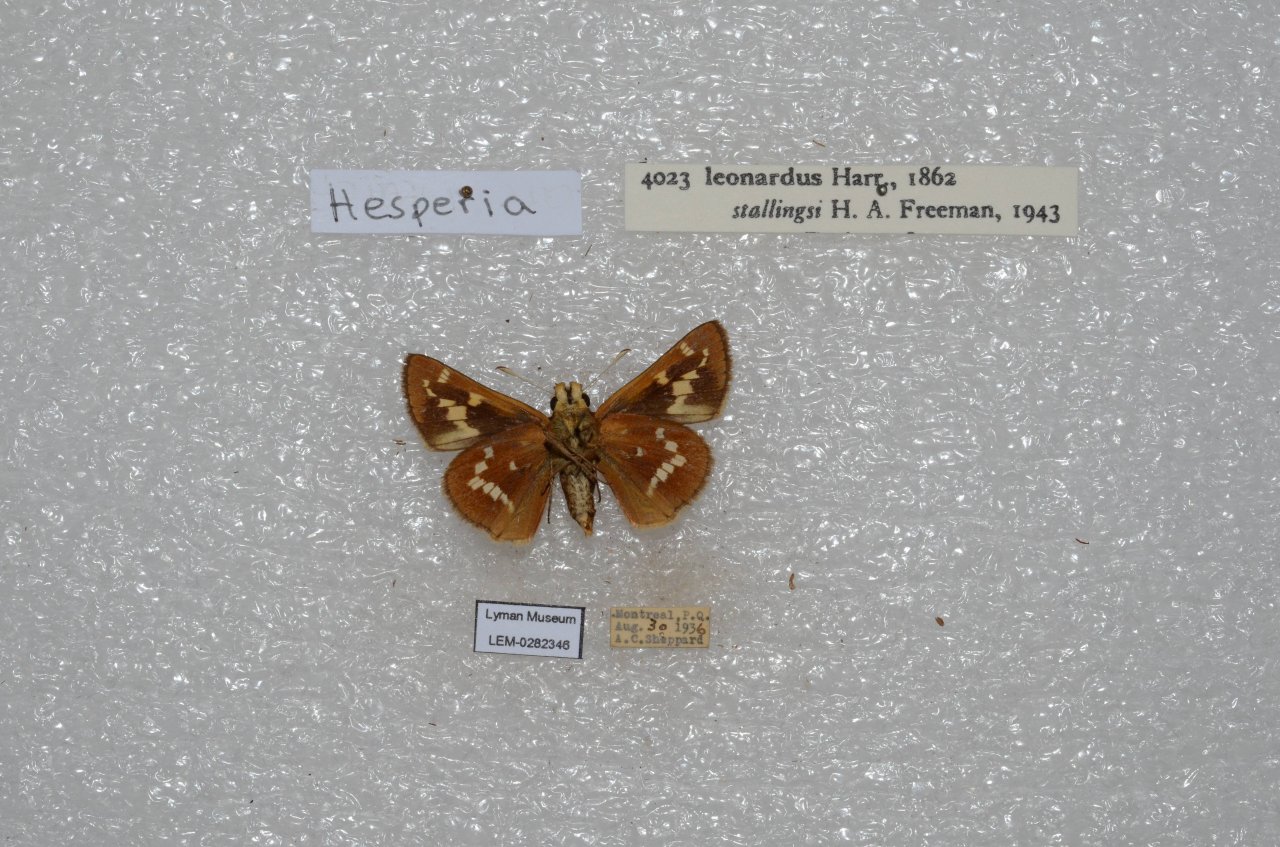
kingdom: Animalia
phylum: Arthropoda
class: Insecta
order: Lepidoptera
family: Hesperiidae
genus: Hesperia
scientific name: Hesperia leonardus
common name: Leonard's Skipper
